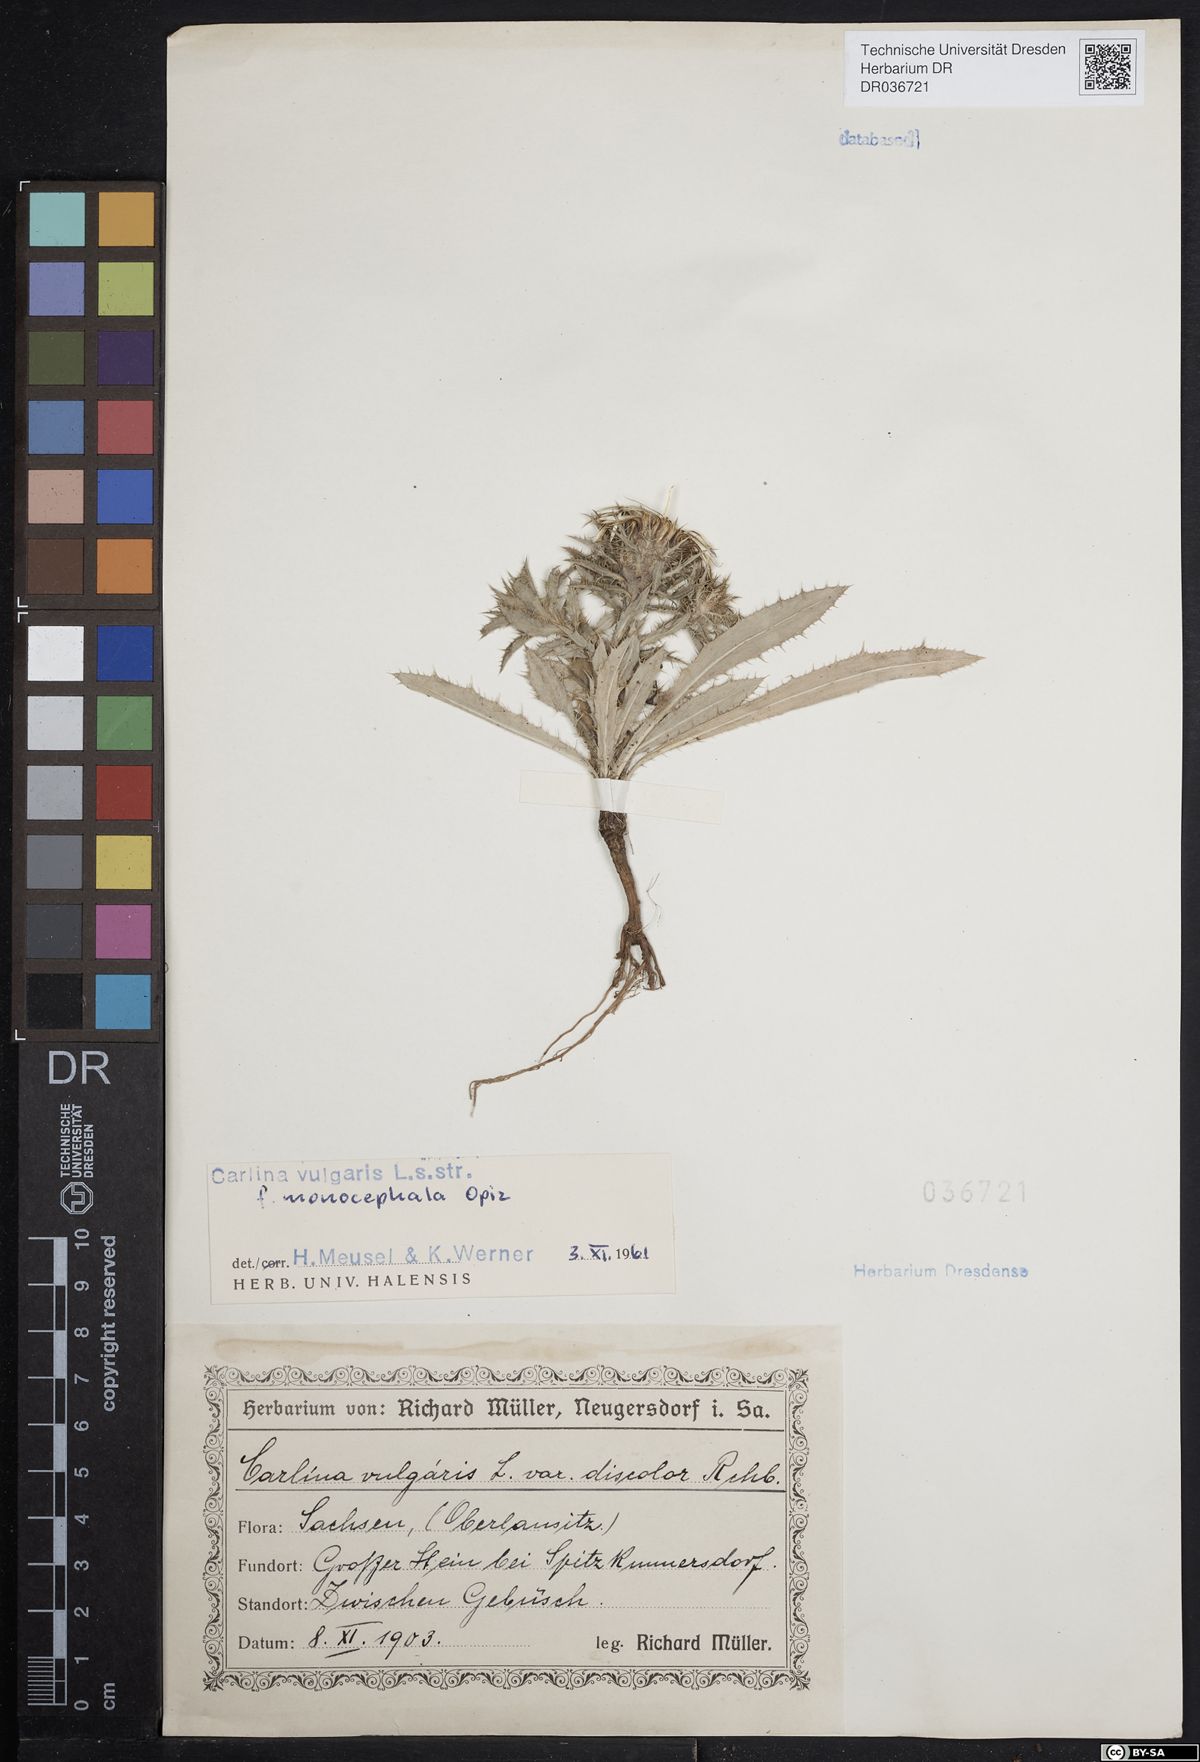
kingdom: Plantae
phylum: Tracheophyta
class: Magnoliopsida
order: Asterales
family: Asteraceae
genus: Carlina
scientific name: Carlina vulgaris
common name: Carline thistle
